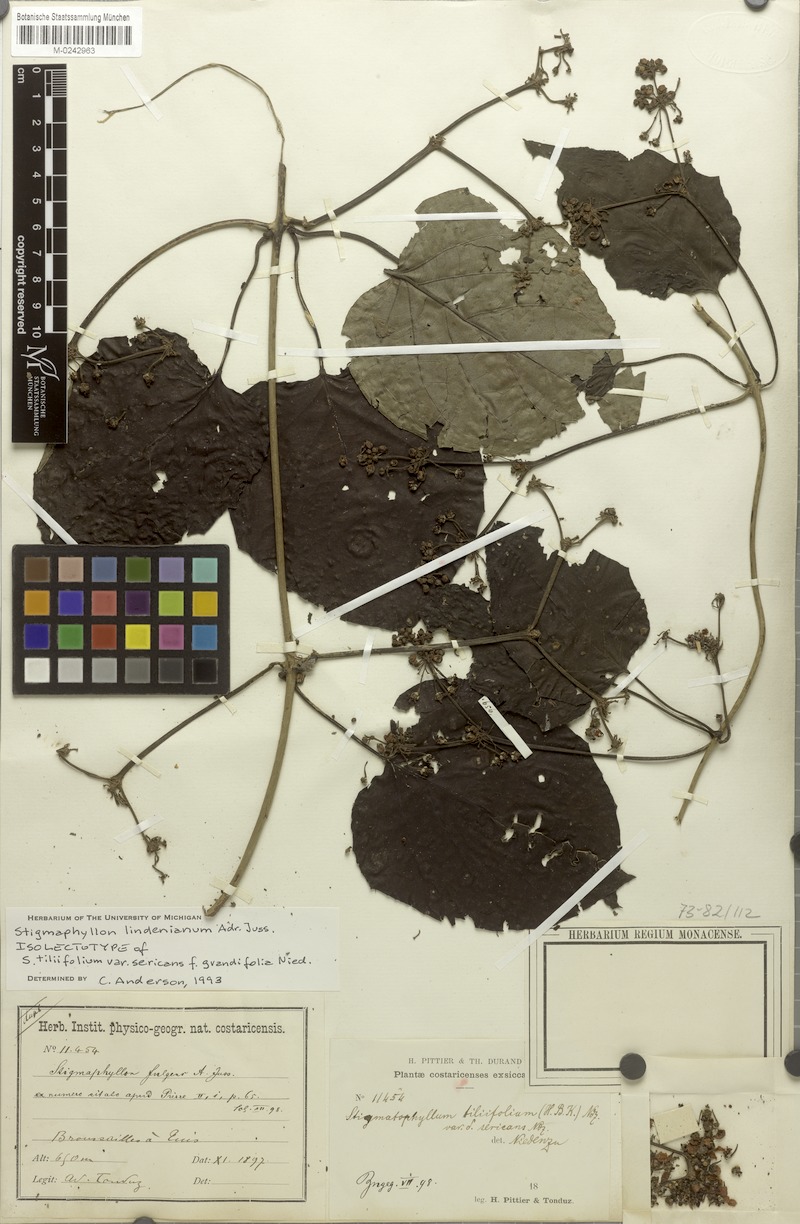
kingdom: Plantae
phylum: Tracheophyta
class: Magnoliopsida
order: Malpighiales
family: Malpighiaceae
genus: Stigmaphyllon
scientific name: Stigmaphyllon lindenianum
